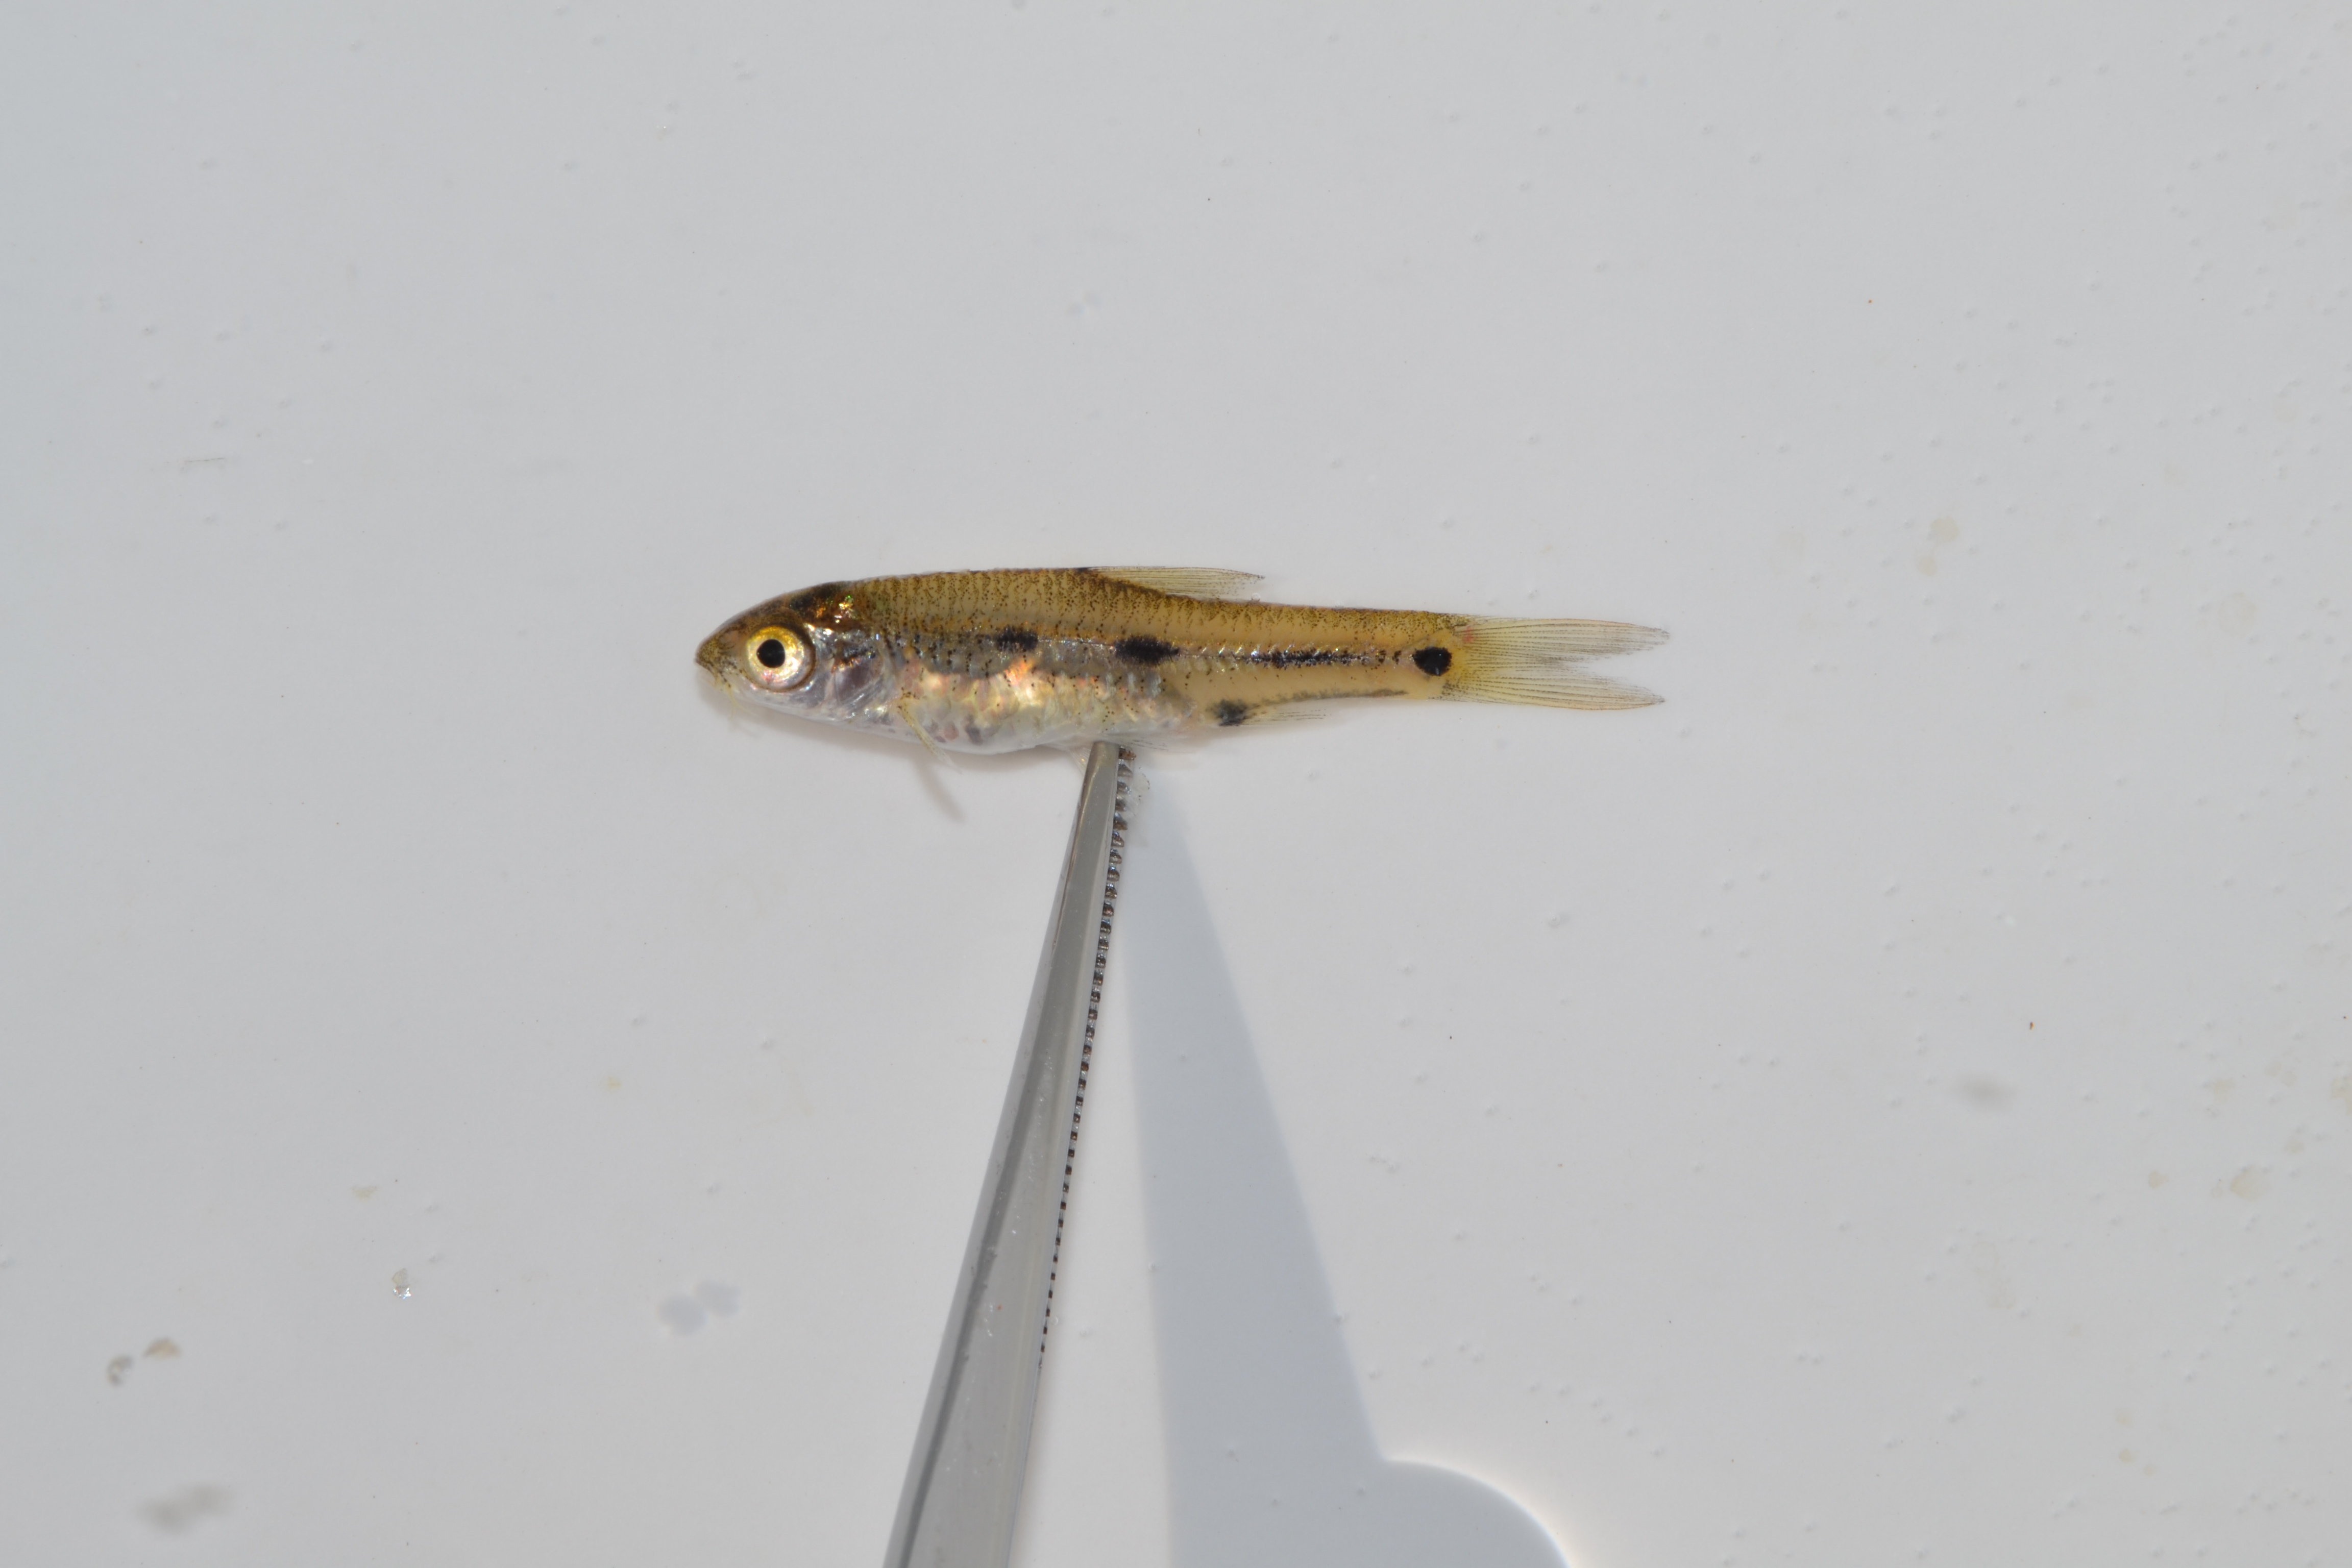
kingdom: Animalia
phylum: Chordata
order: Cypriniformes
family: Cyprinidae
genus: Barbus
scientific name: Barbus
